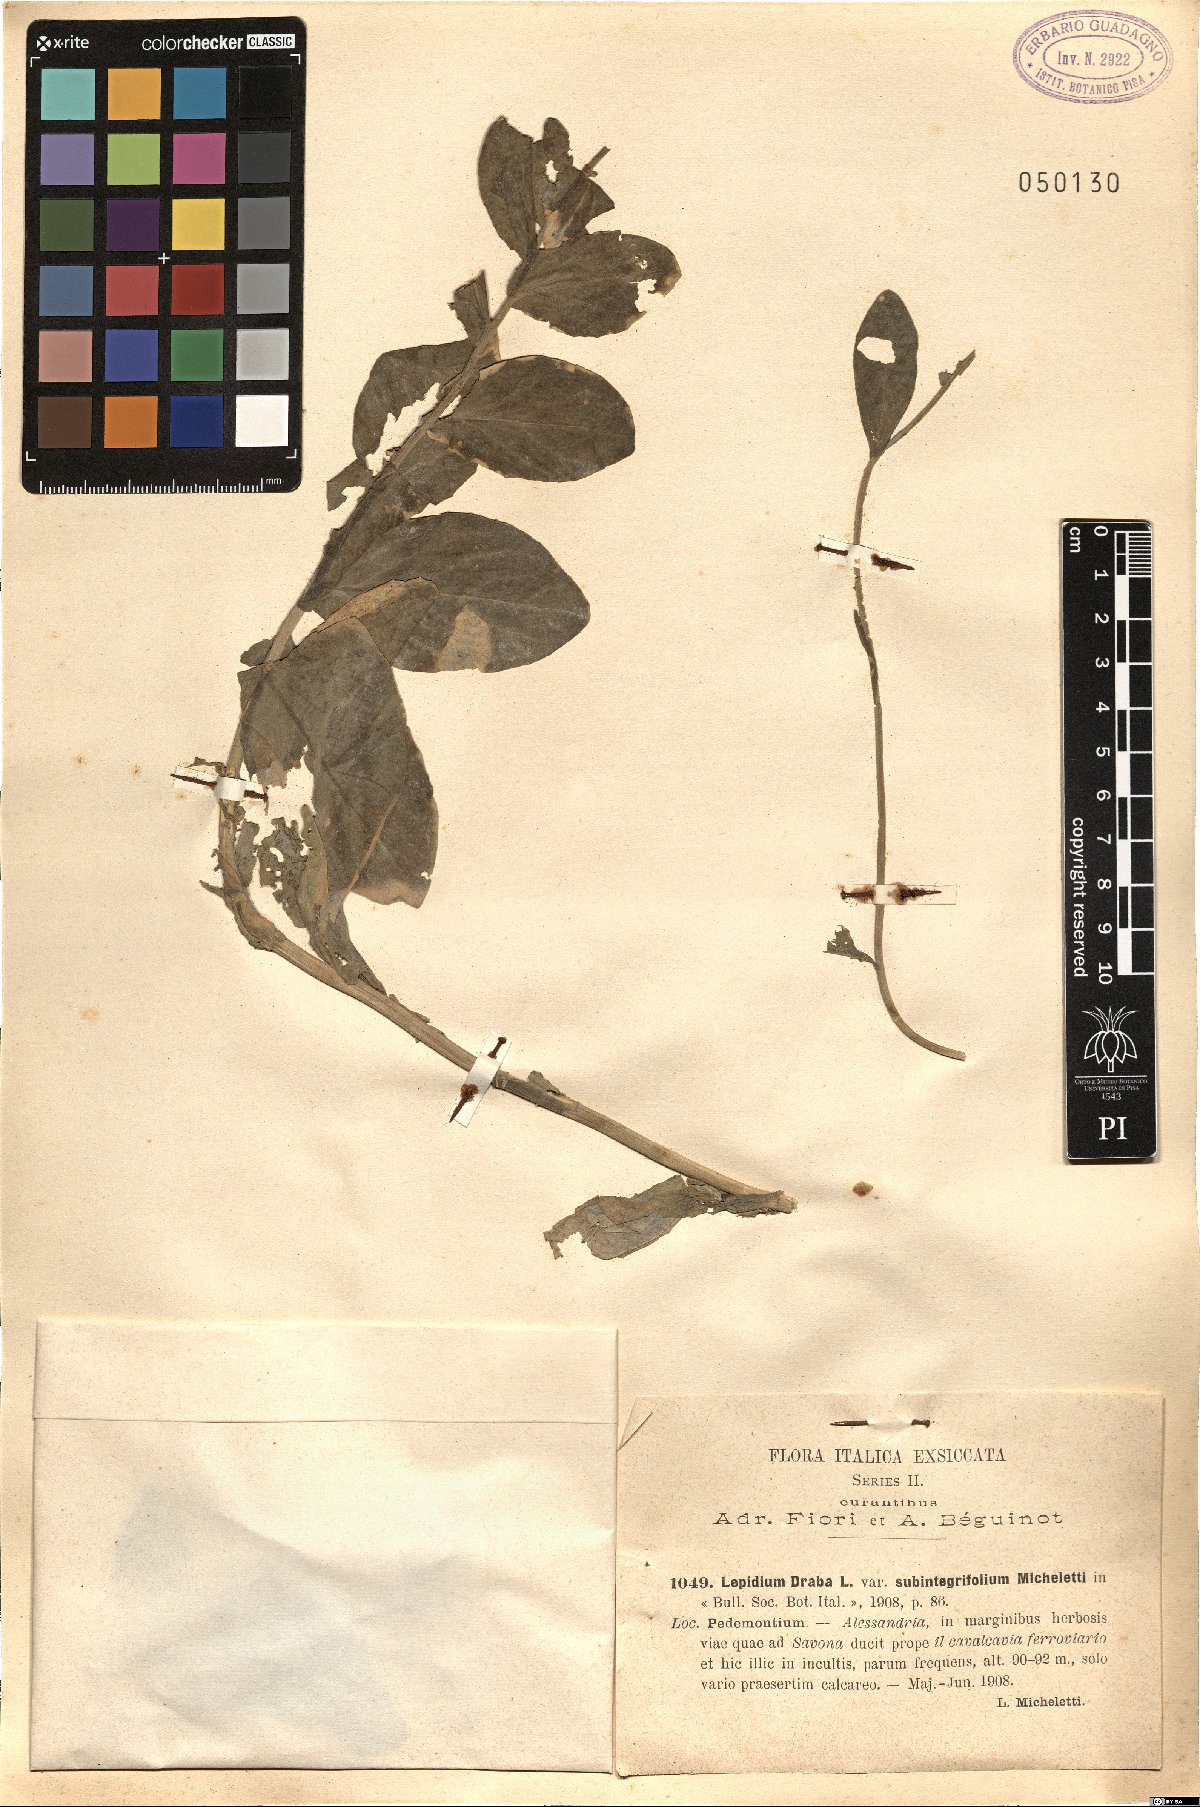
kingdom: Plantae
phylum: Tracheophyta
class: Magnoliopsida
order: Brassicales
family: Brassicaceae
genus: Lepidium
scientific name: Lepidium draba
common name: Hoary cress
